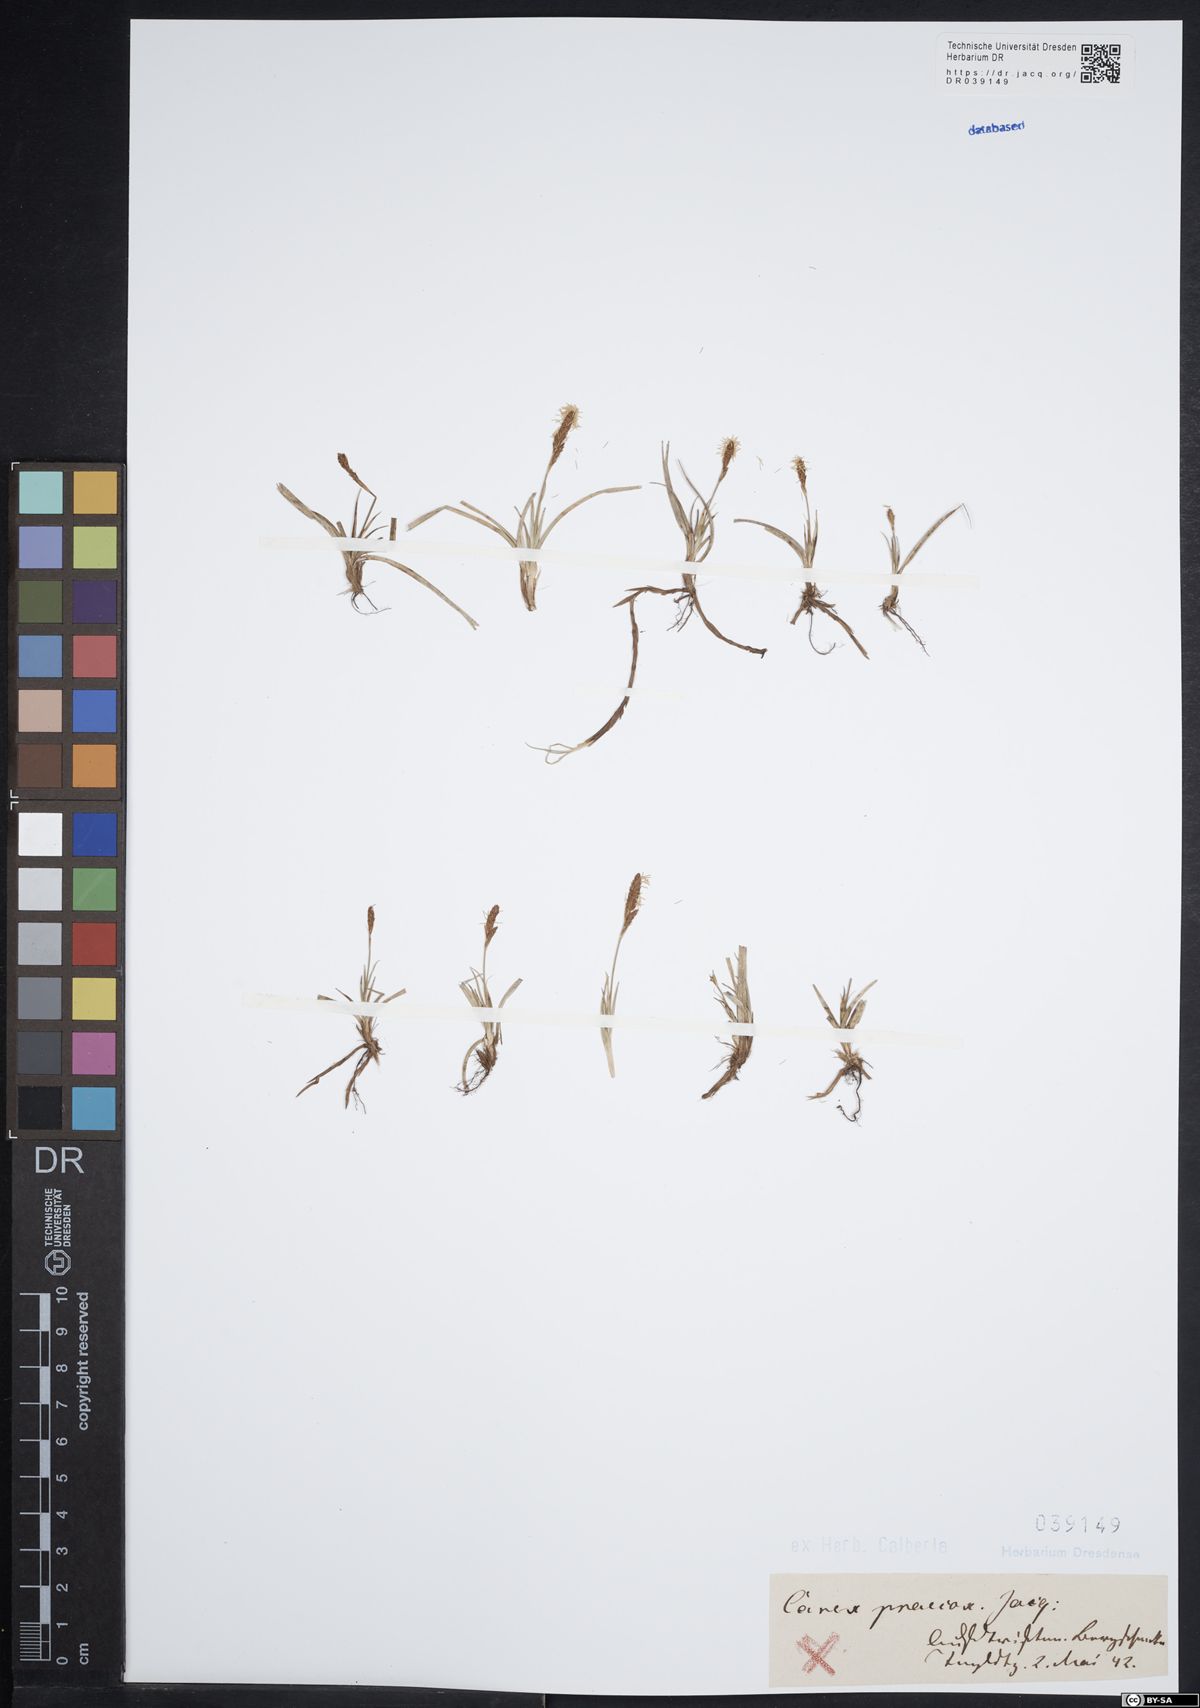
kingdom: Plantae
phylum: Tracheophyta
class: Liliopsida
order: Poales
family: Cyperaceae
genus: Carex
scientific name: Carex praecox
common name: Early sedge
